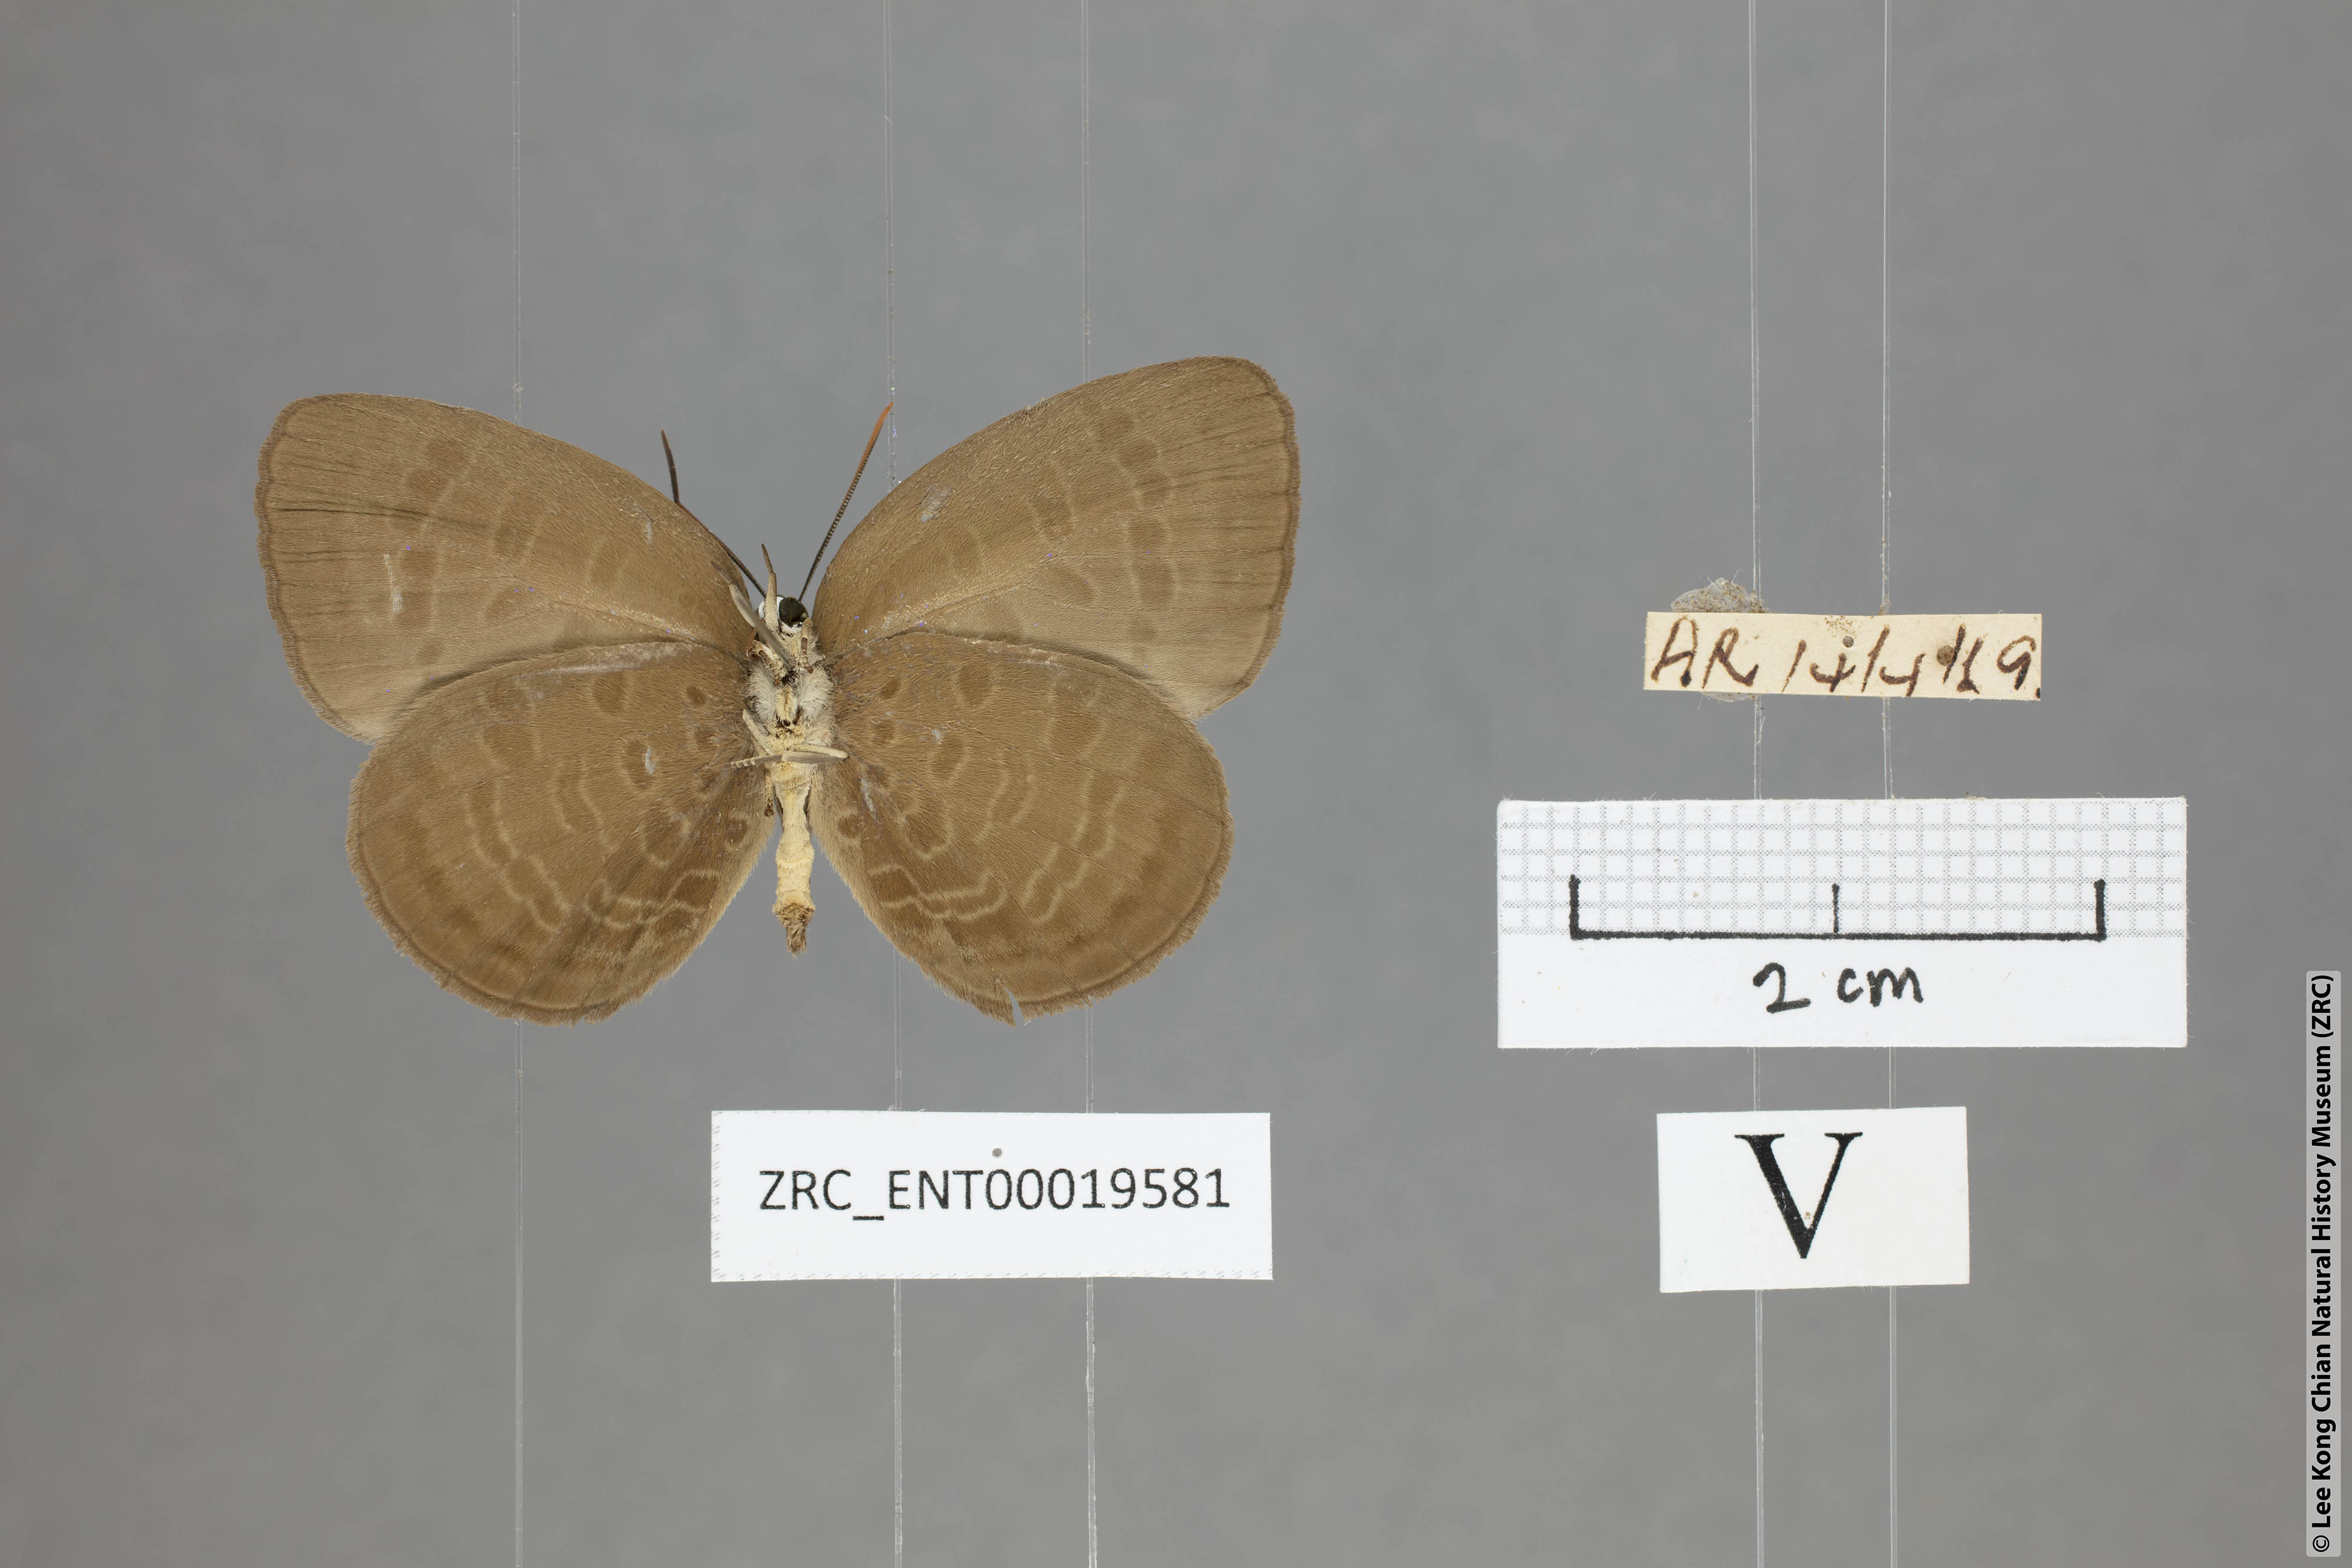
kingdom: Animalia
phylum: Arthropoda
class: Insecta
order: Lepidoptera
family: Lycaenidae
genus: Arhopala
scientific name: Arhopala inornata
